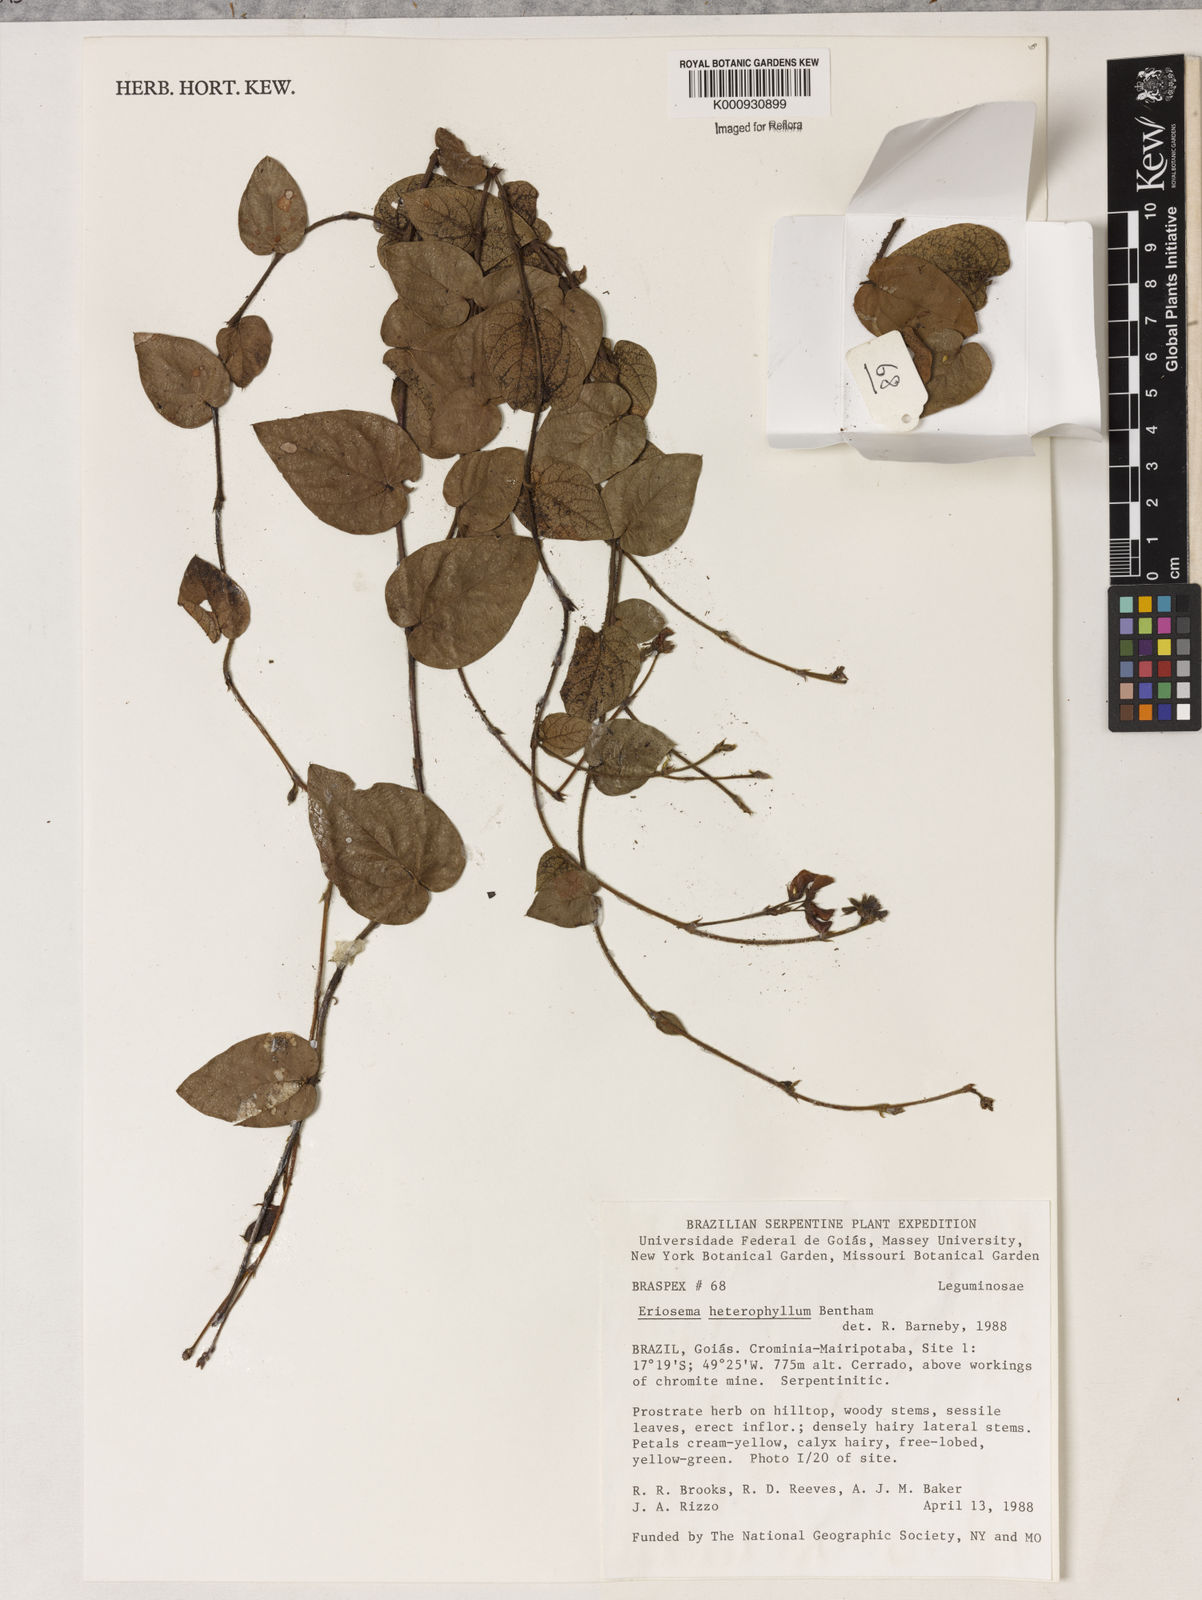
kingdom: Plantae
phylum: Tracheophyta
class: Magnoliopsida
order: Fabales
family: Fabaceae
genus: Eriosema
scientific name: Eriosema heterophyllum
